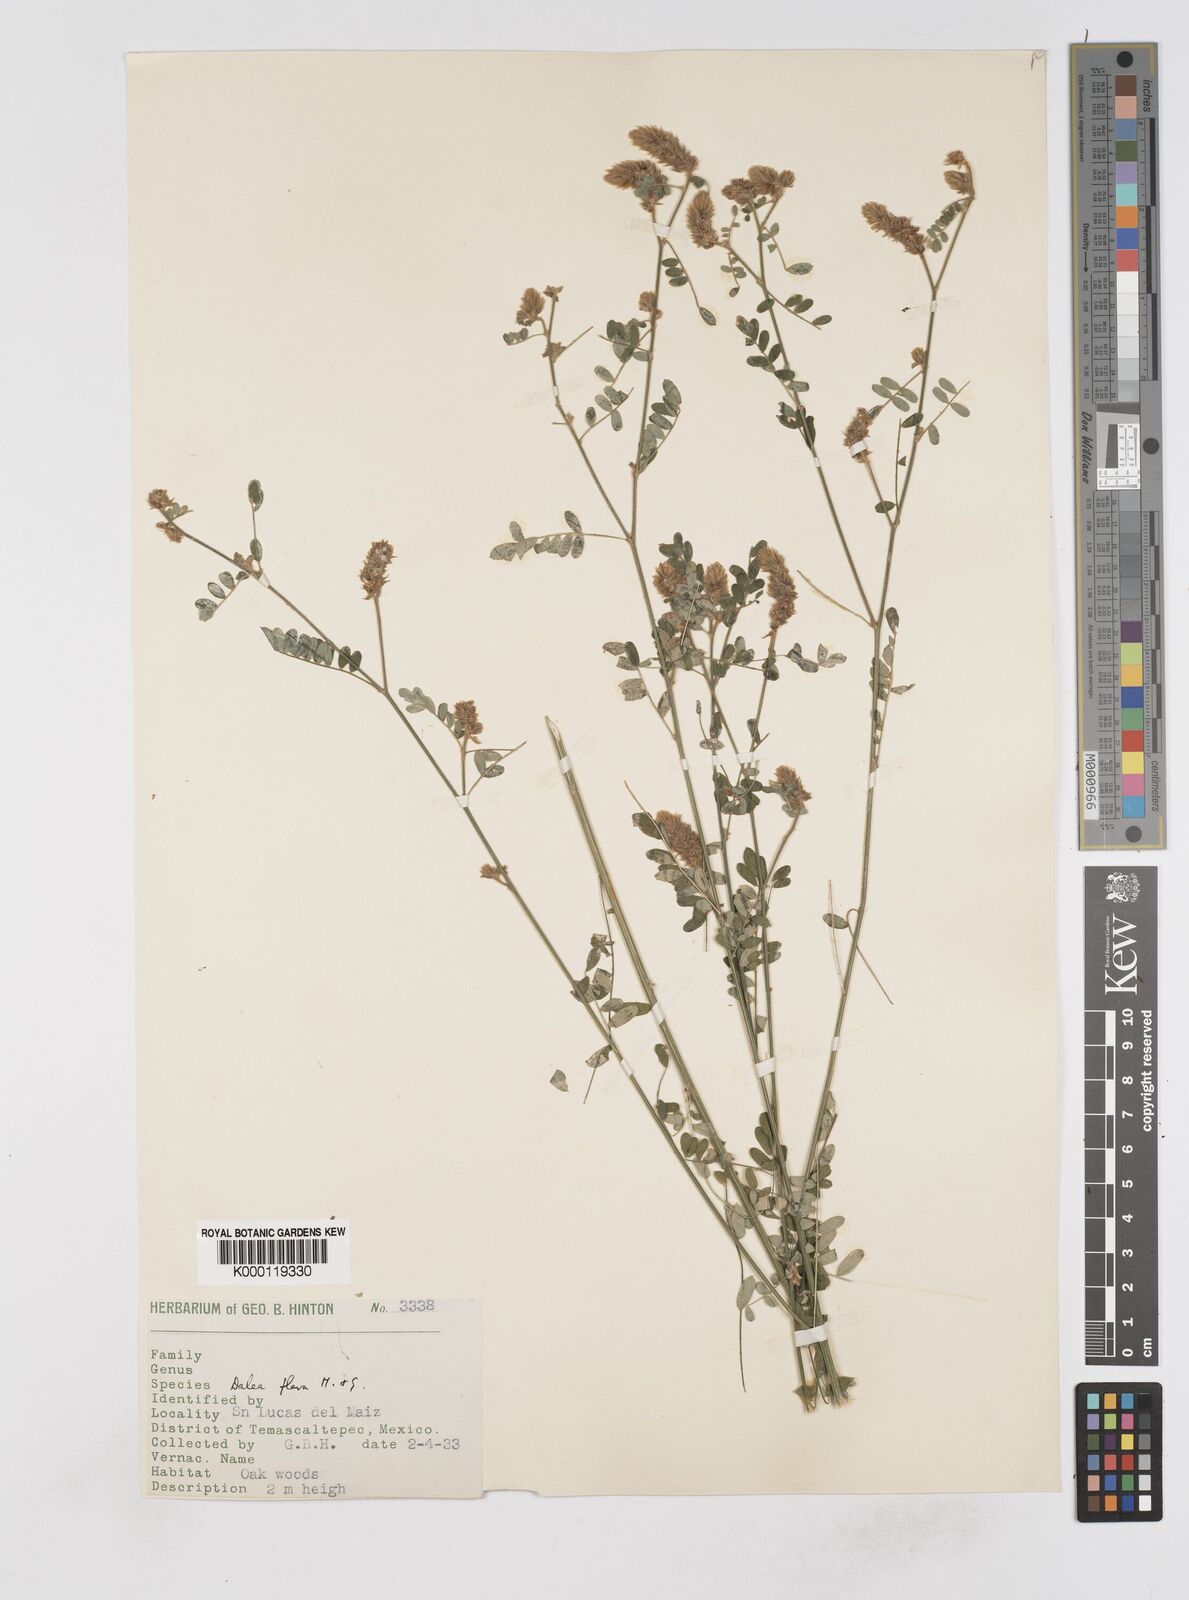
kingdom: Plantae
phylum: Tracheophyta
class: Magnoliopsida
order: Fabales
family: Fabaceae
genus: Dalea
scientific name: Dalea elata
